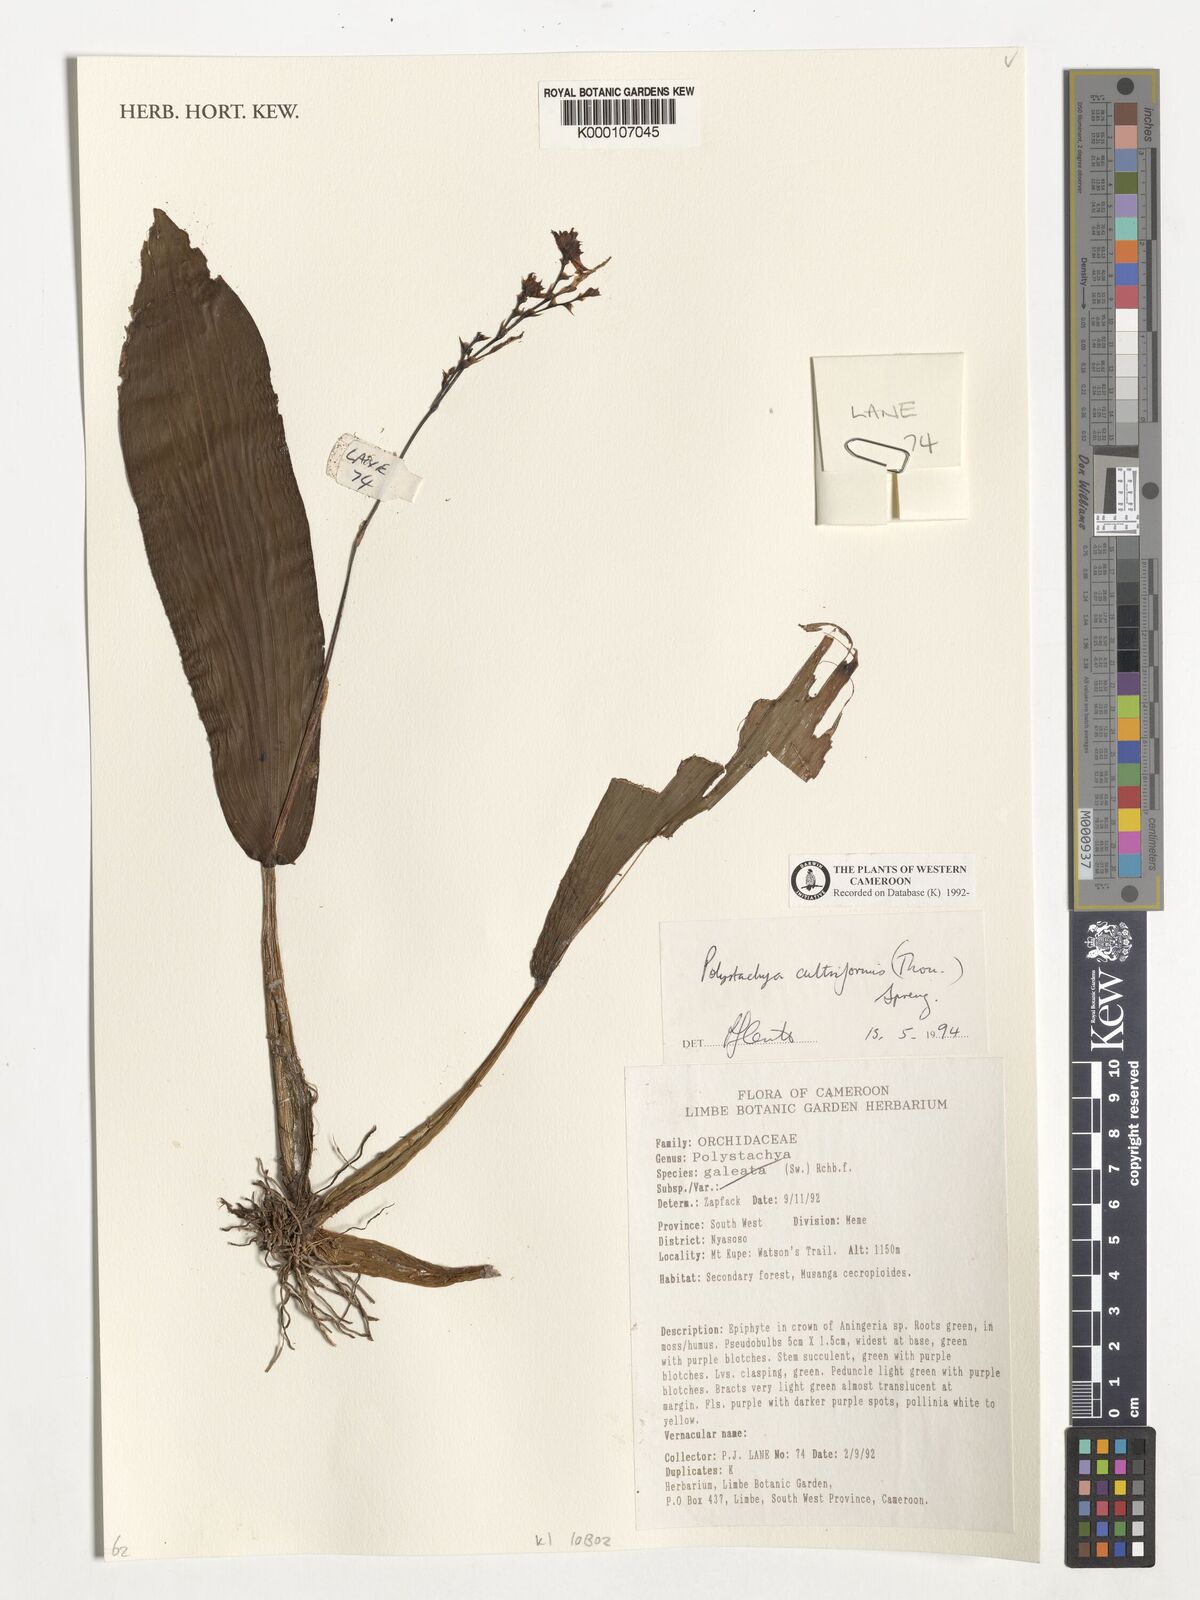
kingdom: Plantae
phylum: Tracheophyta
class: Liliopsida
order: Asparagales
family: Orchidaceae
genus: Polystachya
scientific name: Polystachya cultriformis
